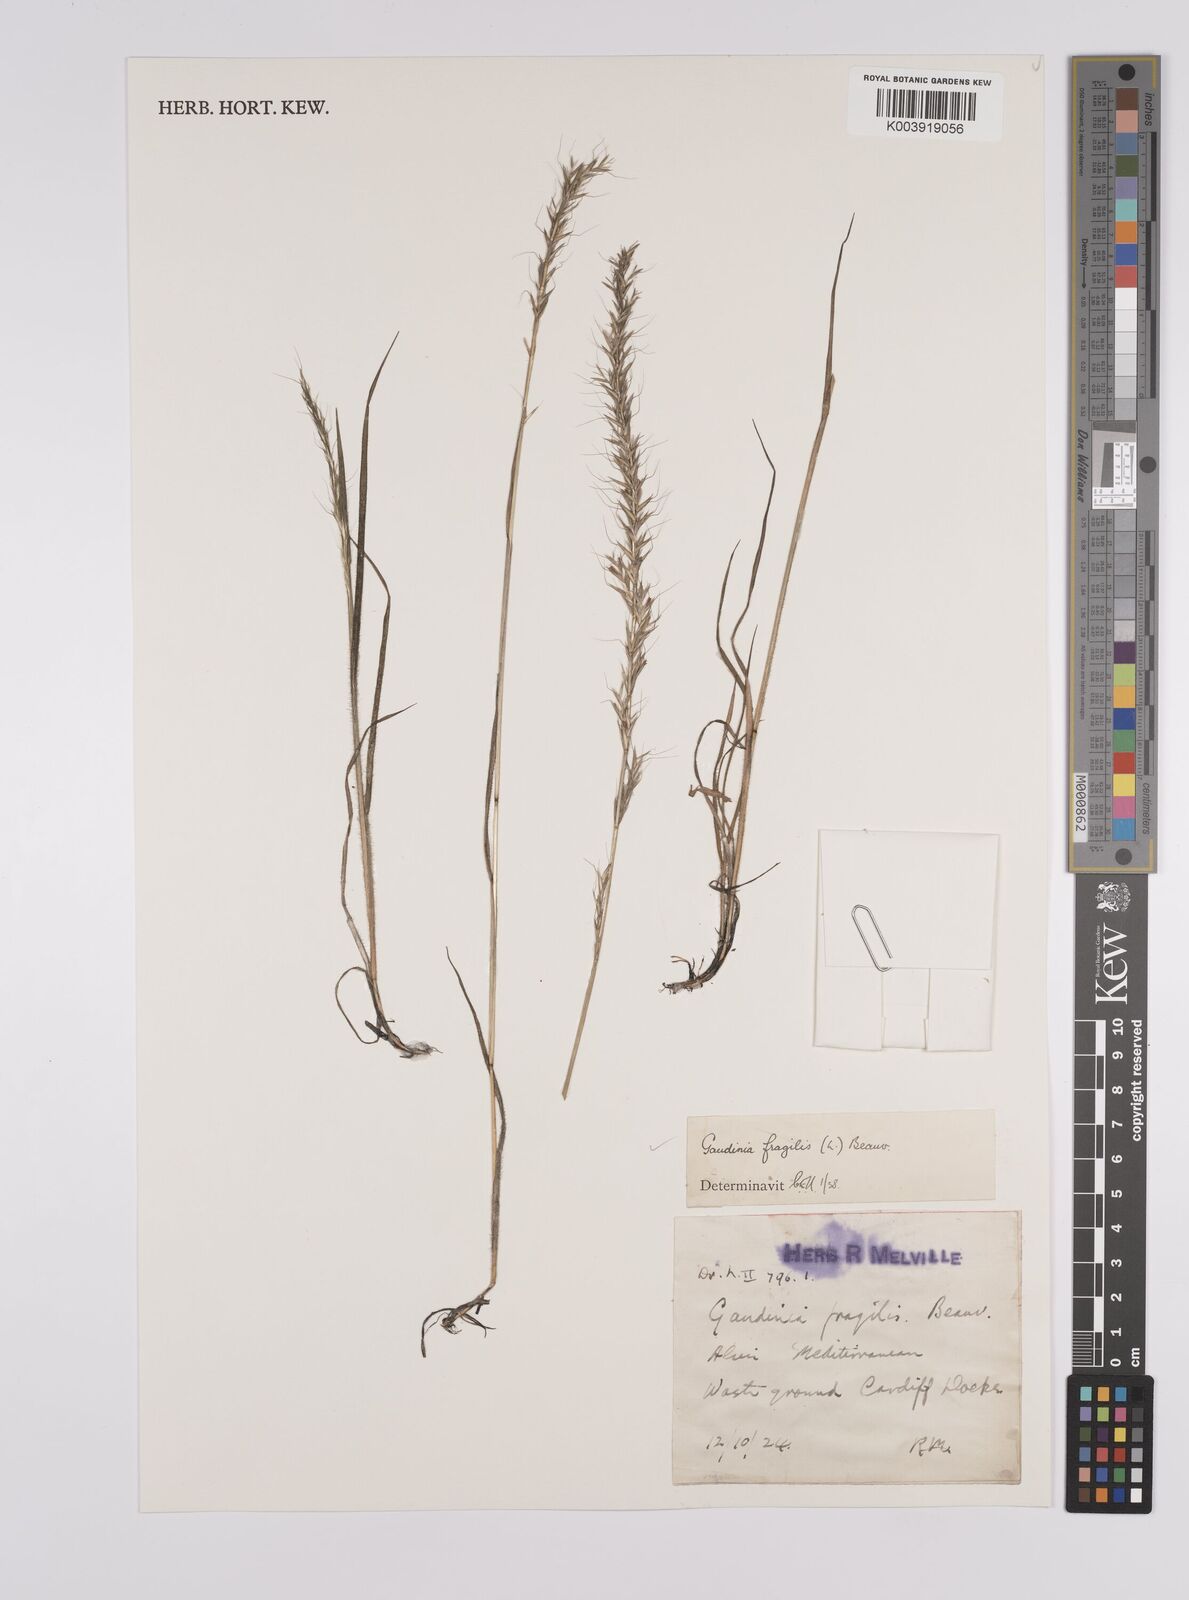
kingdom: Plantae
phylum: Tracheophyta
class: Liliopsida
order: Poales
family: Poaceae
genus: Gaudinia
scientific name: Gaudinia fragilis
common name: French oat-grass
